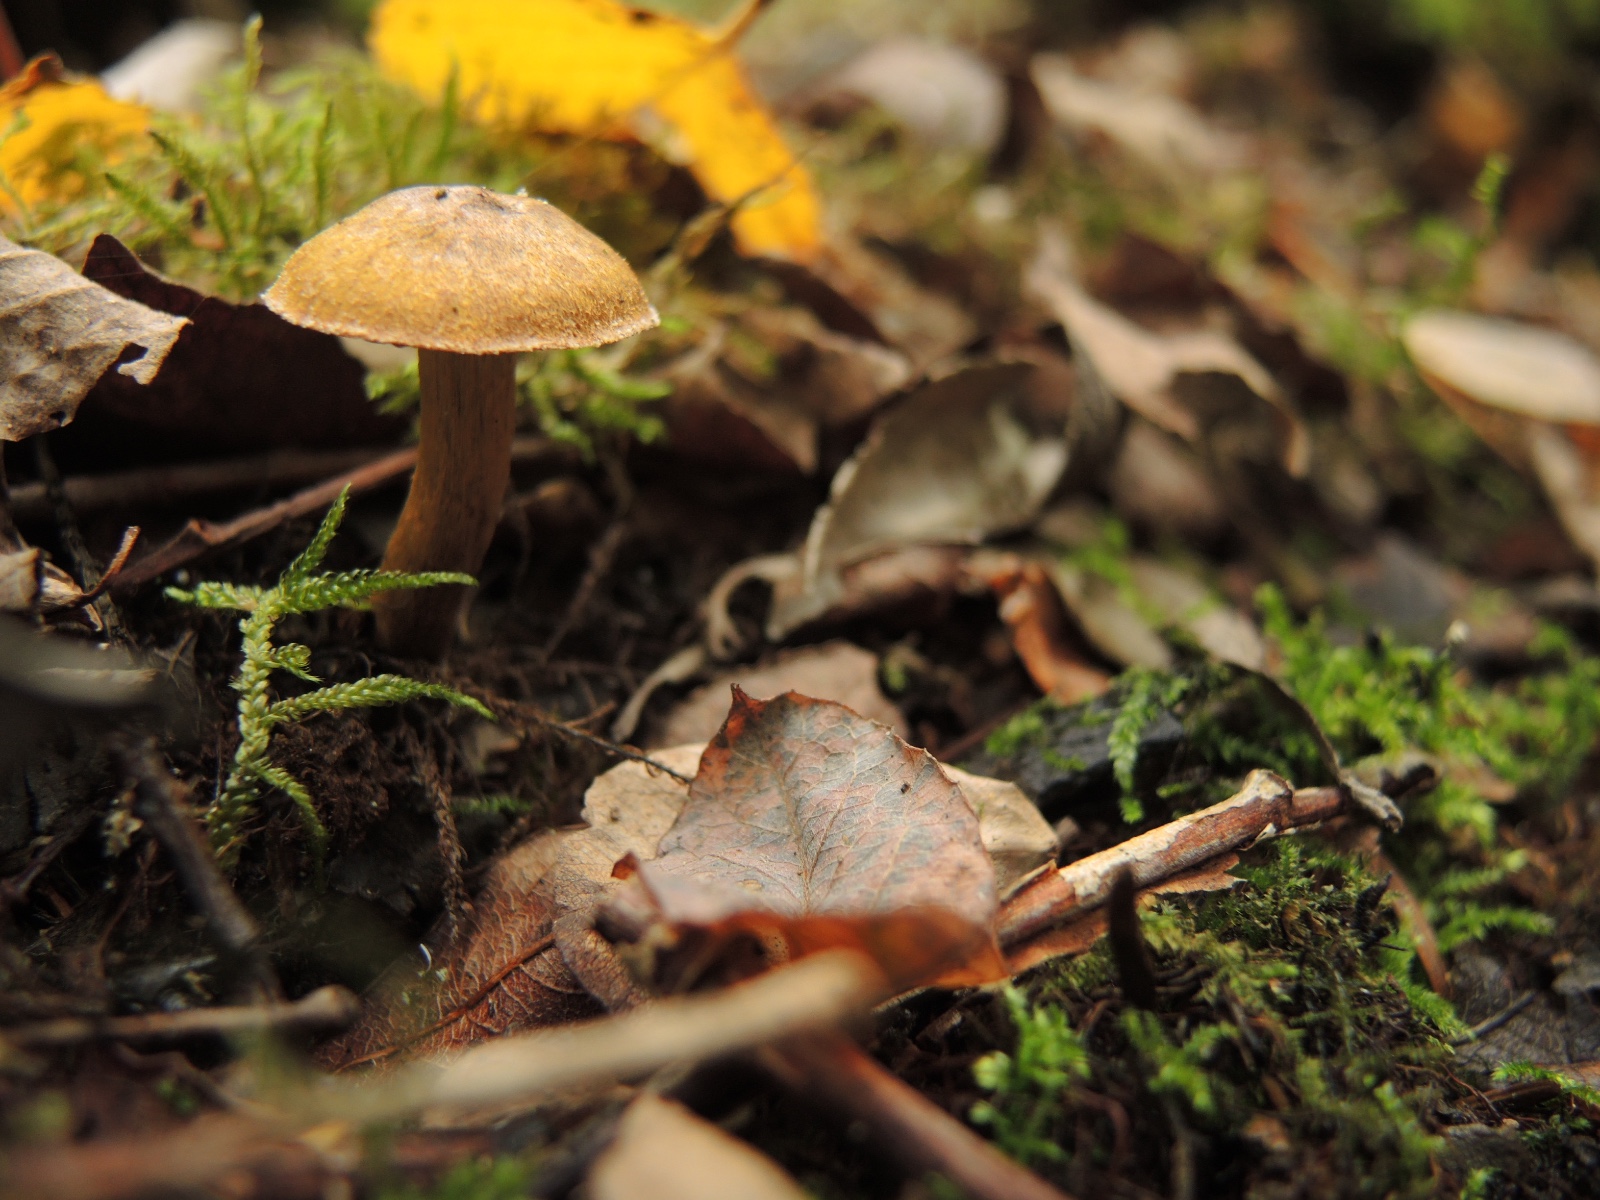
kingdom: Fungi
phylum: Basidiomycota
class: Agaricomycetes
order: Agaricales
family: Cortinariaceae
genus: Cortinarius
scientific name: Cortinarius cinnamomeoluteus
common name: kanelgul slørhat
